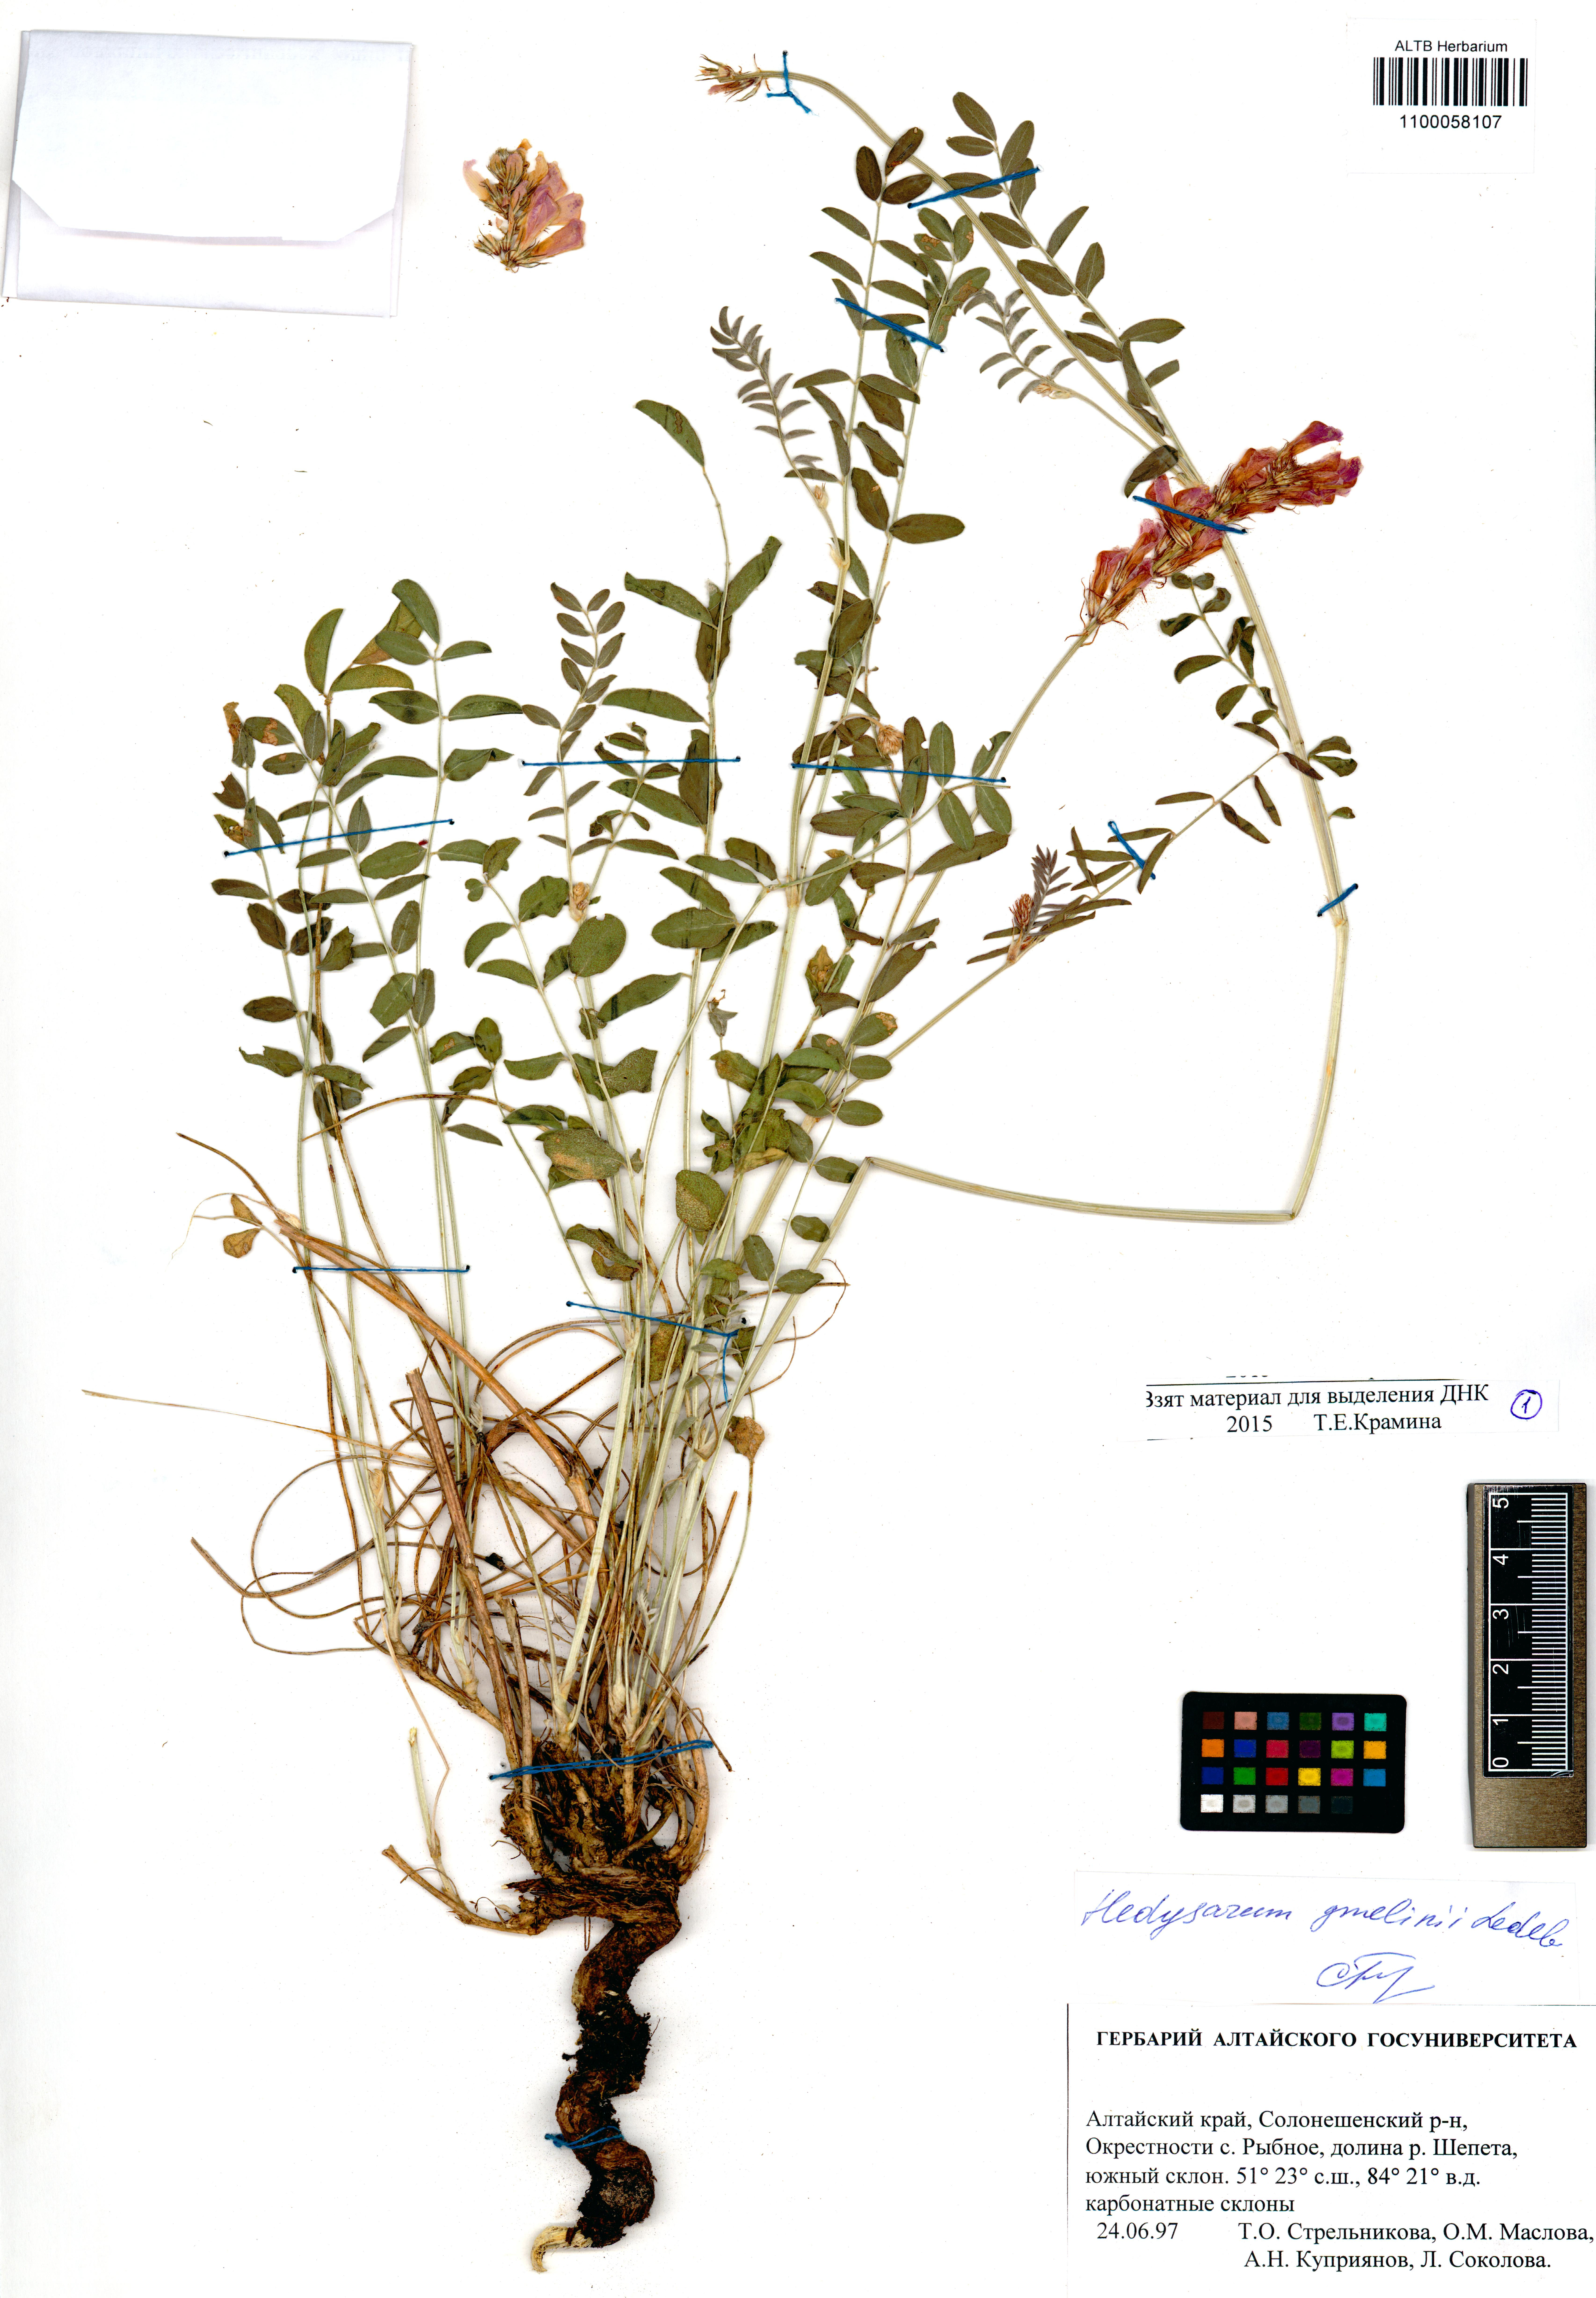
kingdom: Plantae
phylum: Tracheophyta
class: Magnoliopsida
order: Fabales
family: Fabaceae
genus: Hedysarum
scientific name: Hedysarum gmelinii
